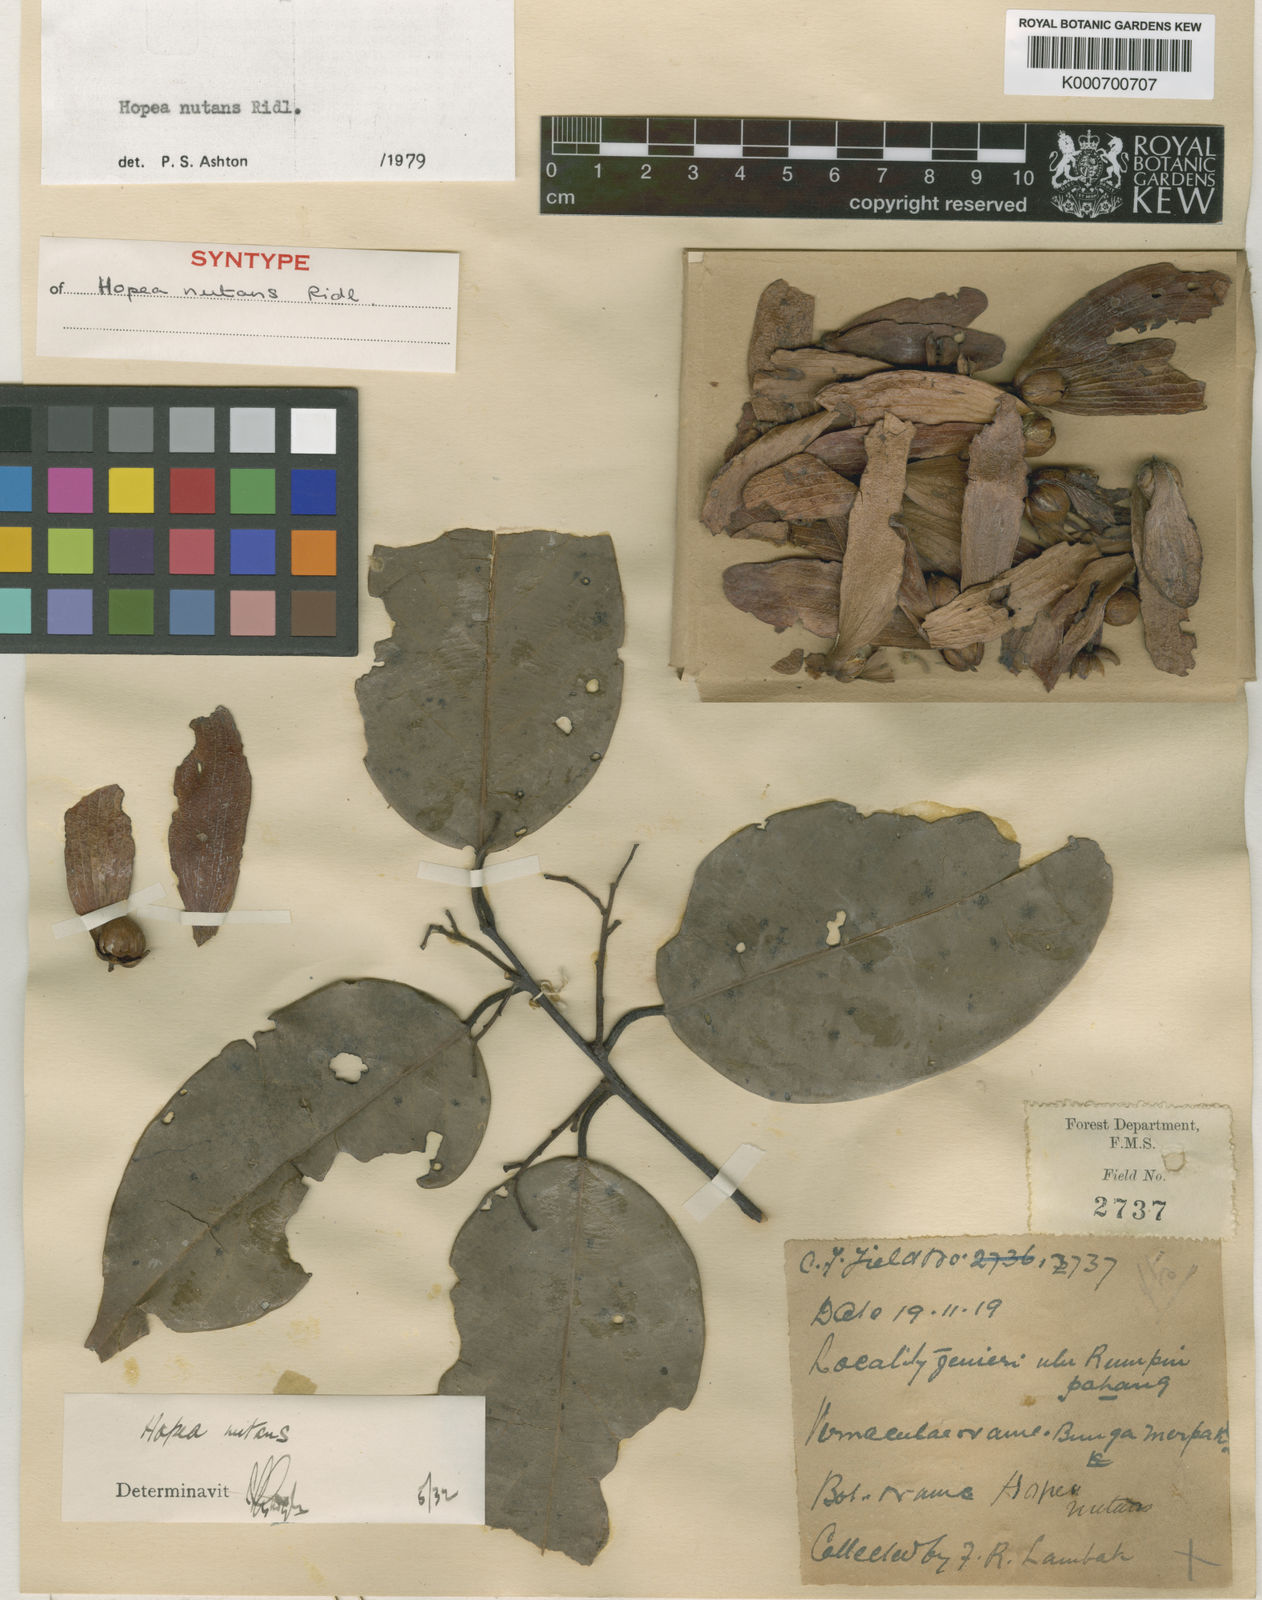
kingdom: Plantae
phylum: Tracheophyta
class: Magnoliopsida
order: Malvales
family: Dipterocarpaceae
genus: Hopea
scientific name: Hopea nutans
